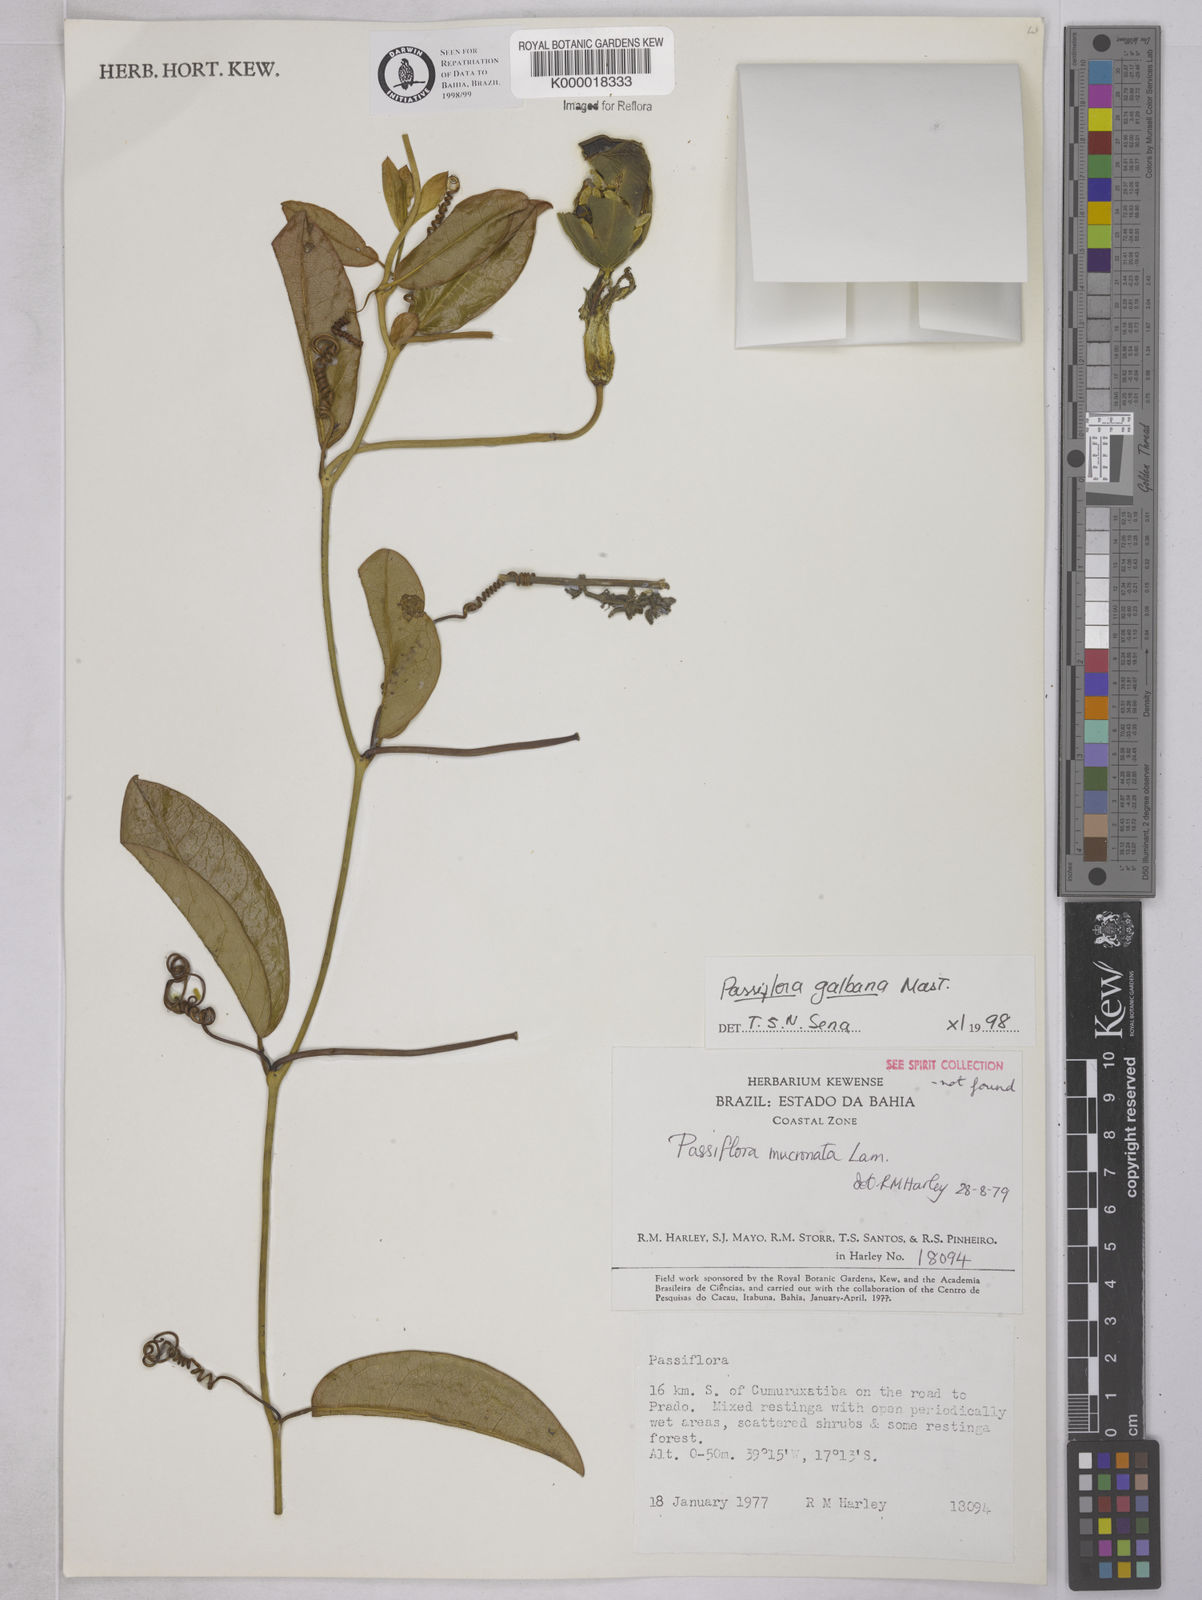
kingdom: Plantae
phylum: Tracheophyta
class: Magnoliopsida
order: Malpighiales
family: Passifloraceae
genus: Passiflora
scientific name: Passiflora silvestris
